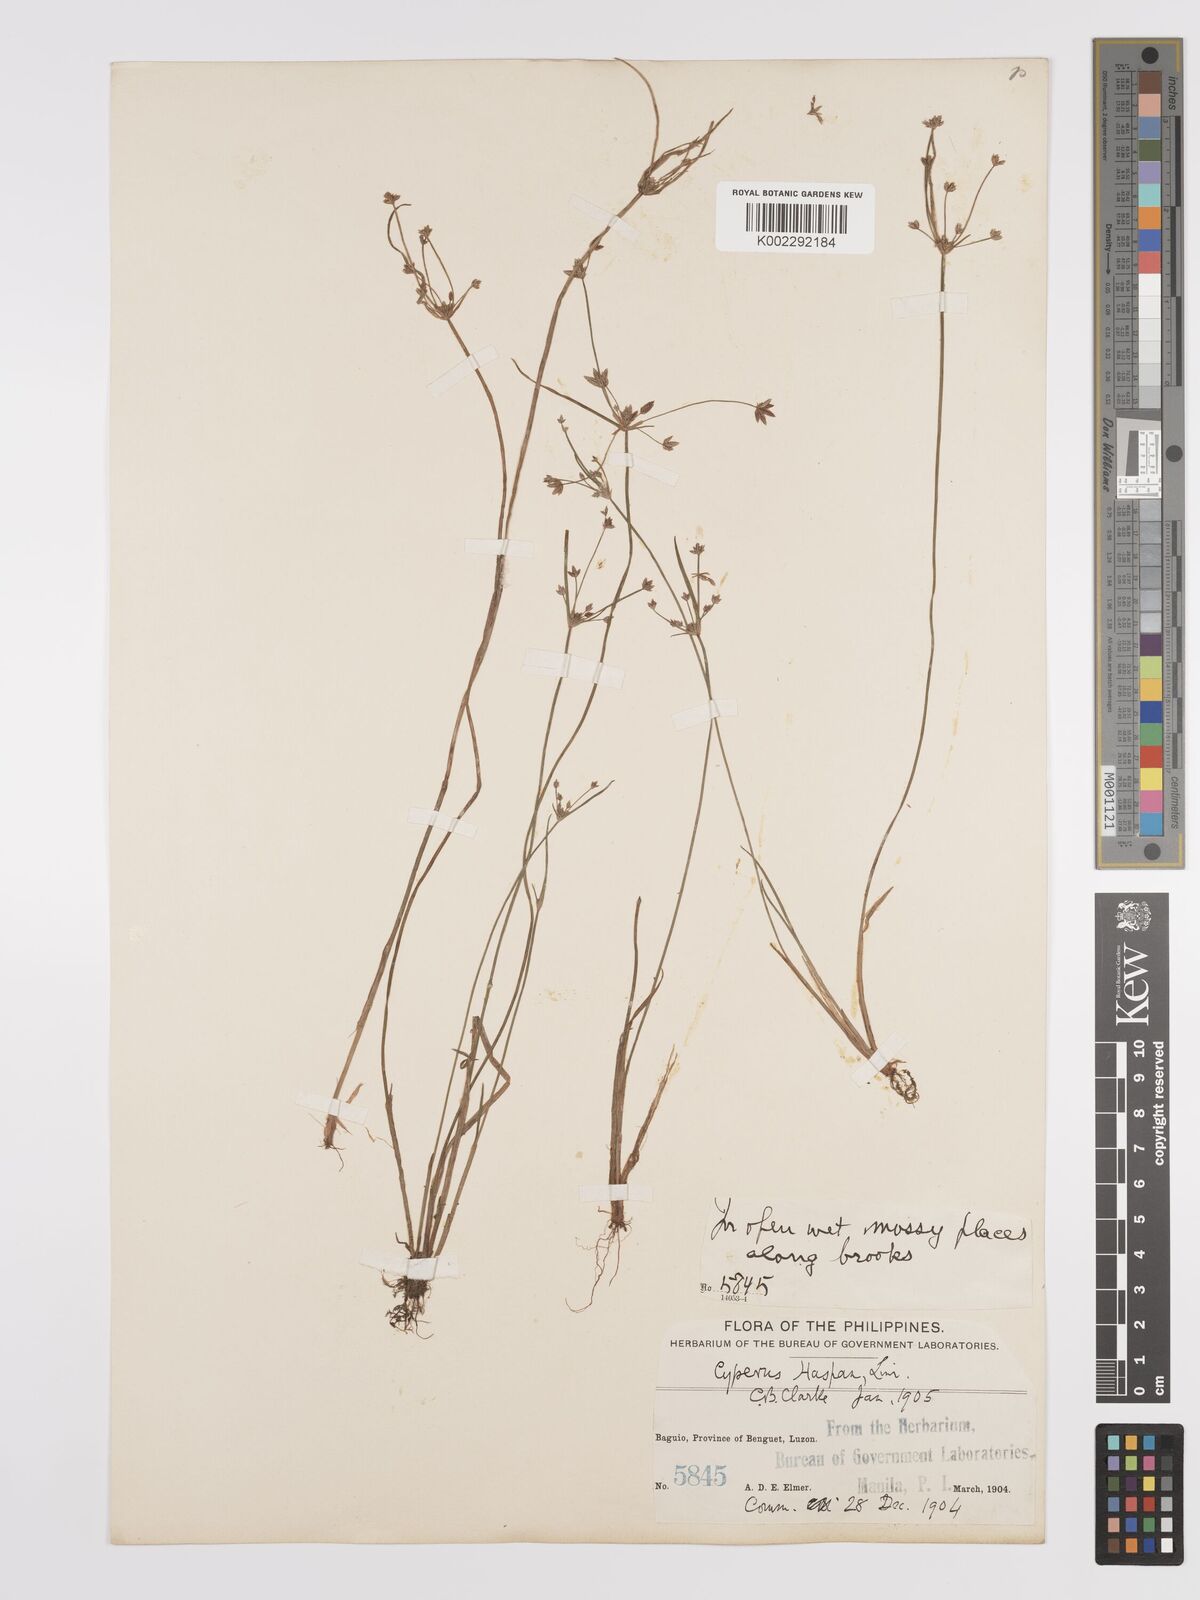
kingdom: Plantae
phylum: Tracheophyta
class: Liliopsida
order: Poales
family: Cyperaceae
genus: Cyperus
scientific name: Cyperus haspan
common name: Haspan flatsedge
